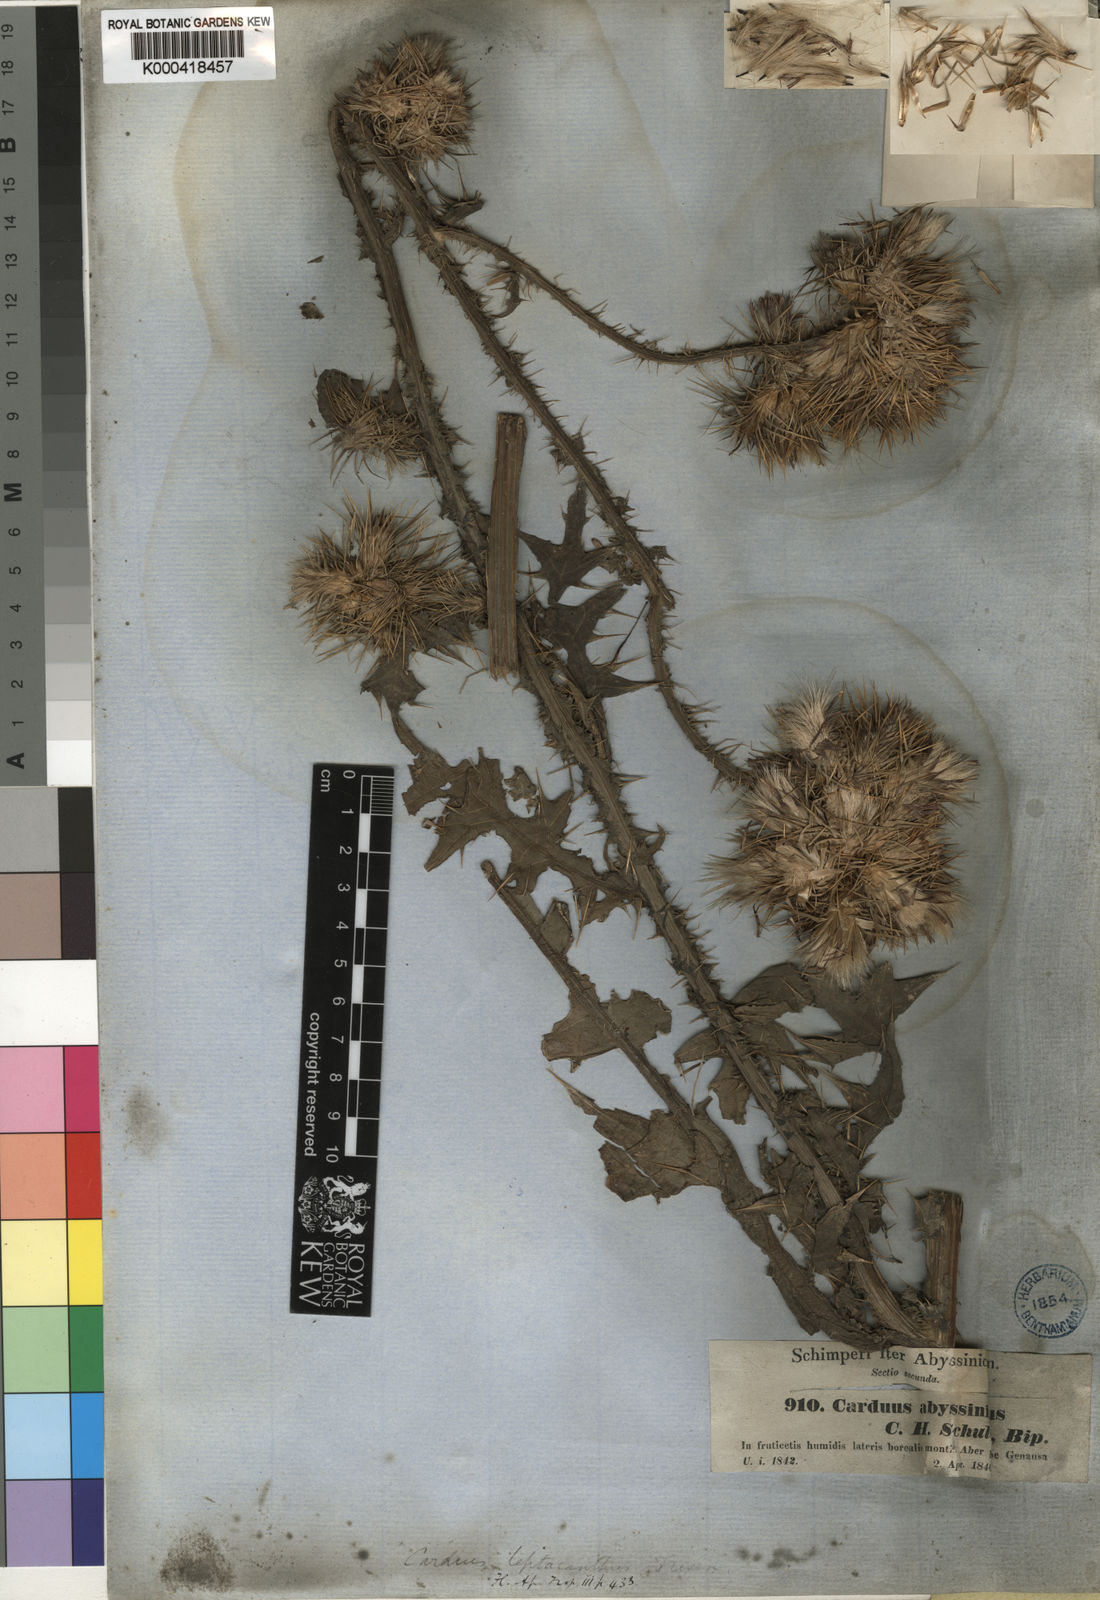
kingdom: Plantae
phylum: Tracheophyta
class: Magnoliopsida
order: Asterales
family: Asteraceae
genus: Carduus
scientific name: Carduus leptacanthus
